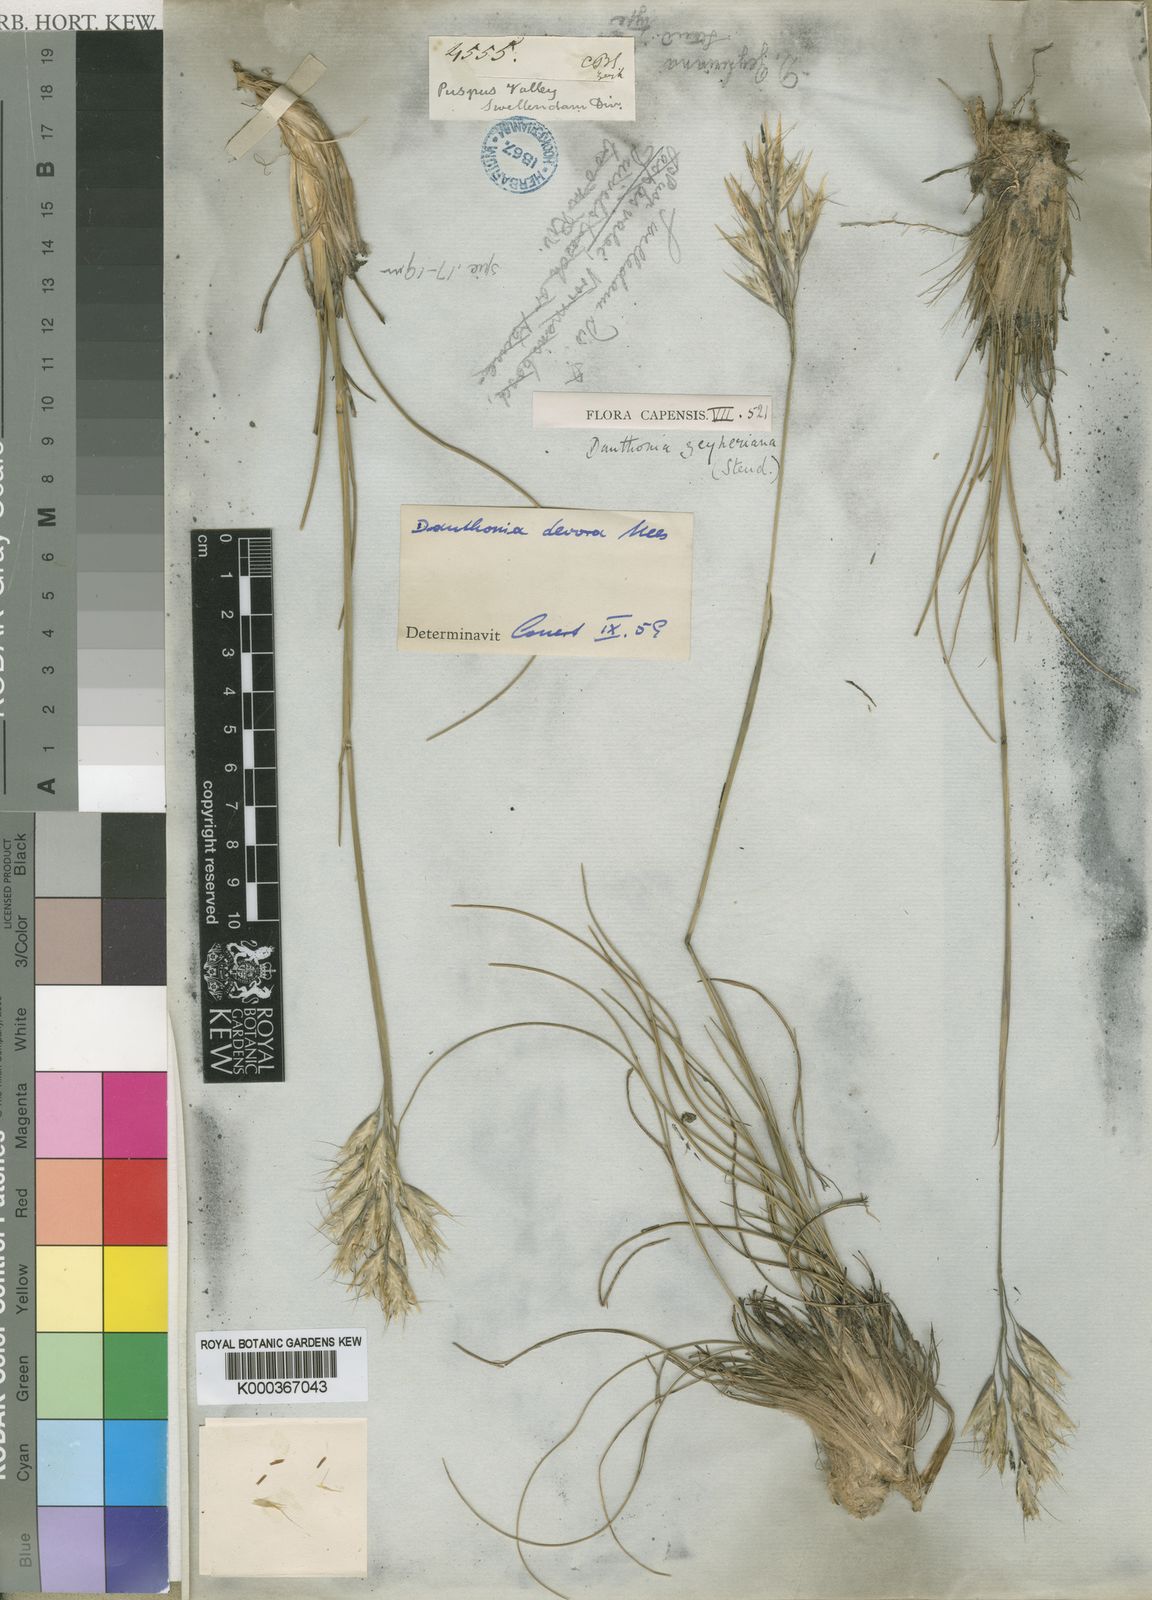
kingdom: Plantae
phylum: Tracheophyta
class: Liliopsida
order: Poales
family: Poaceae
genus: Rytidosperma
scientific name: Rytidosperma
